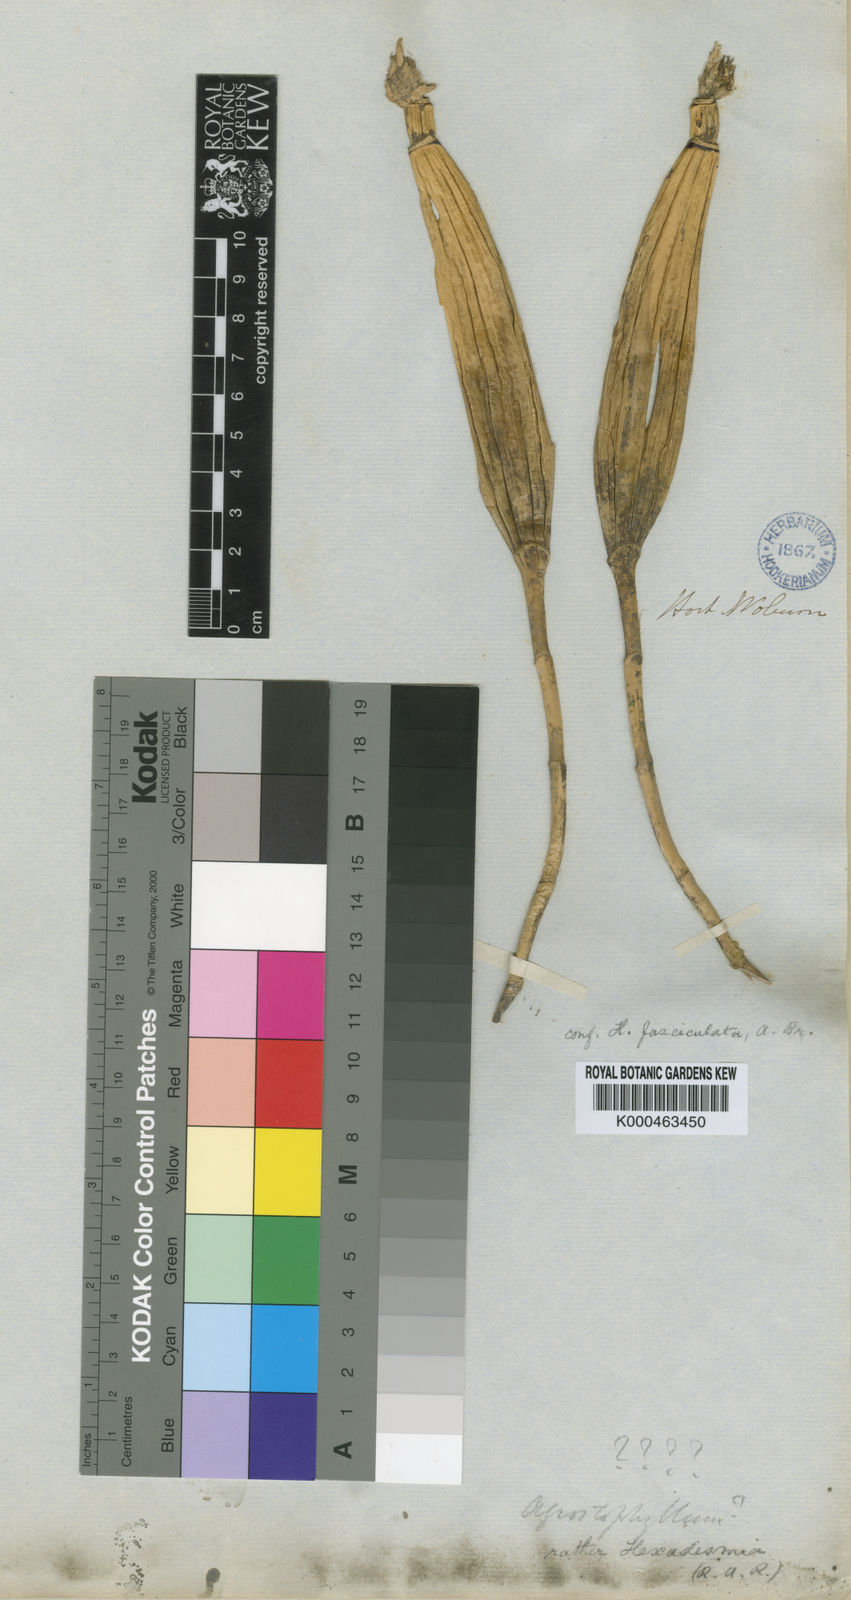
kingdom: Plantae
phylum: Tracheophyta
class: Liliopsida
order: Asparagales
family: Orchidaceae
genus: Scaphyglottis
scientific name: Scaphyglottis fasciculata
